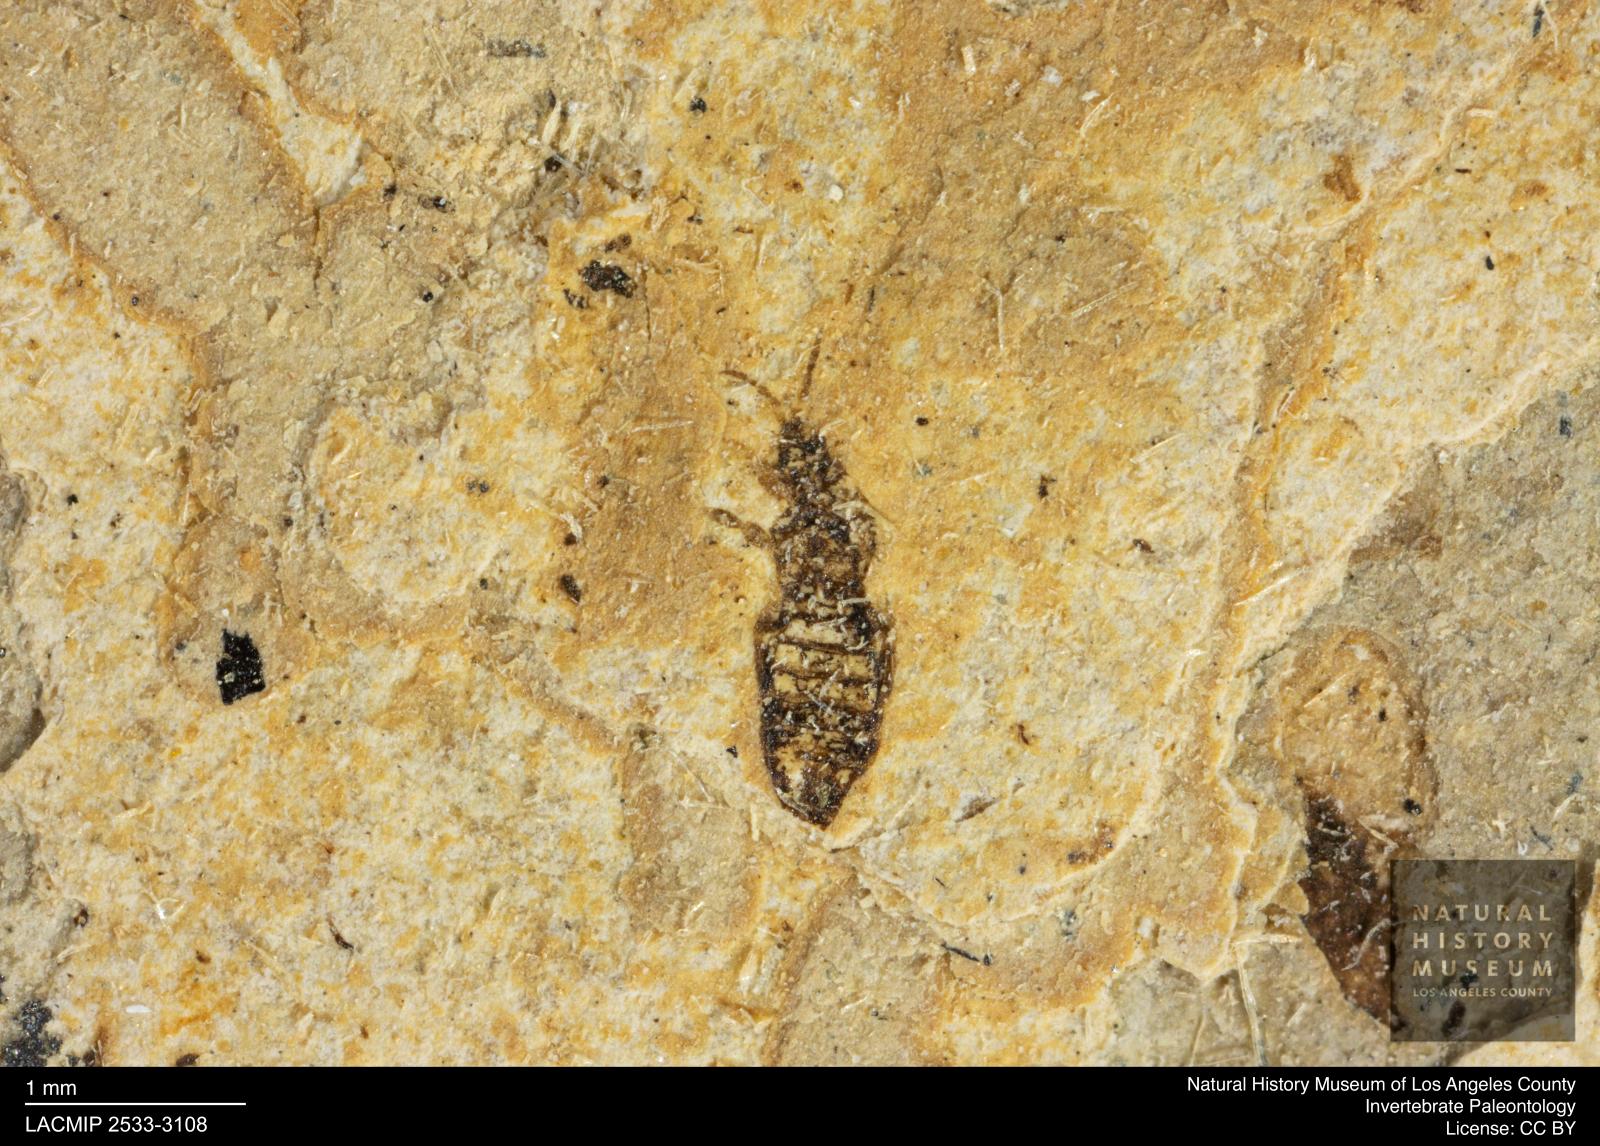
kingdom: Animalia
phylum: Arthropoda
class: Insecta
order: Thysanoptera
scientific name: Thysanoptera
